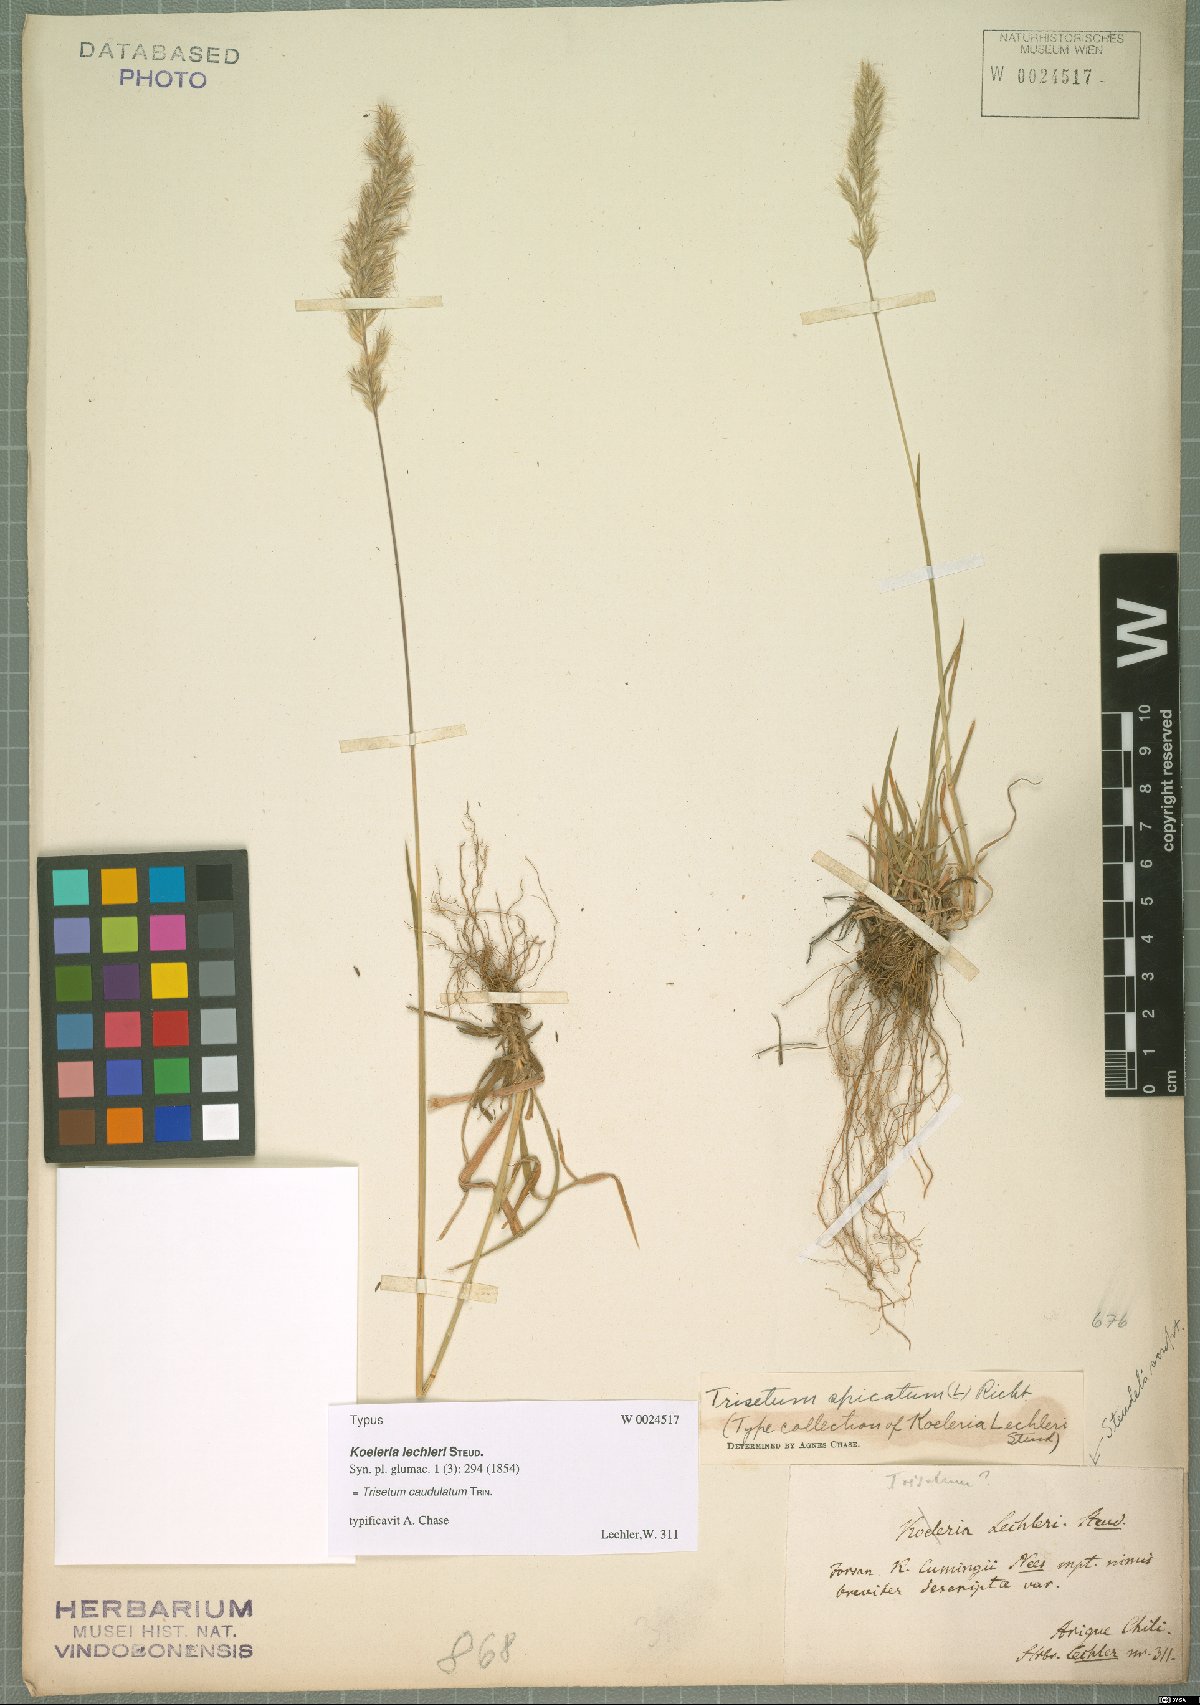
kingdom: Plantae
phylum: Tracheophyta
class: Liliopsida
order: Poales
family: Poaceae
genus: Trisetum
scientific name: Trisetum caudulatum
